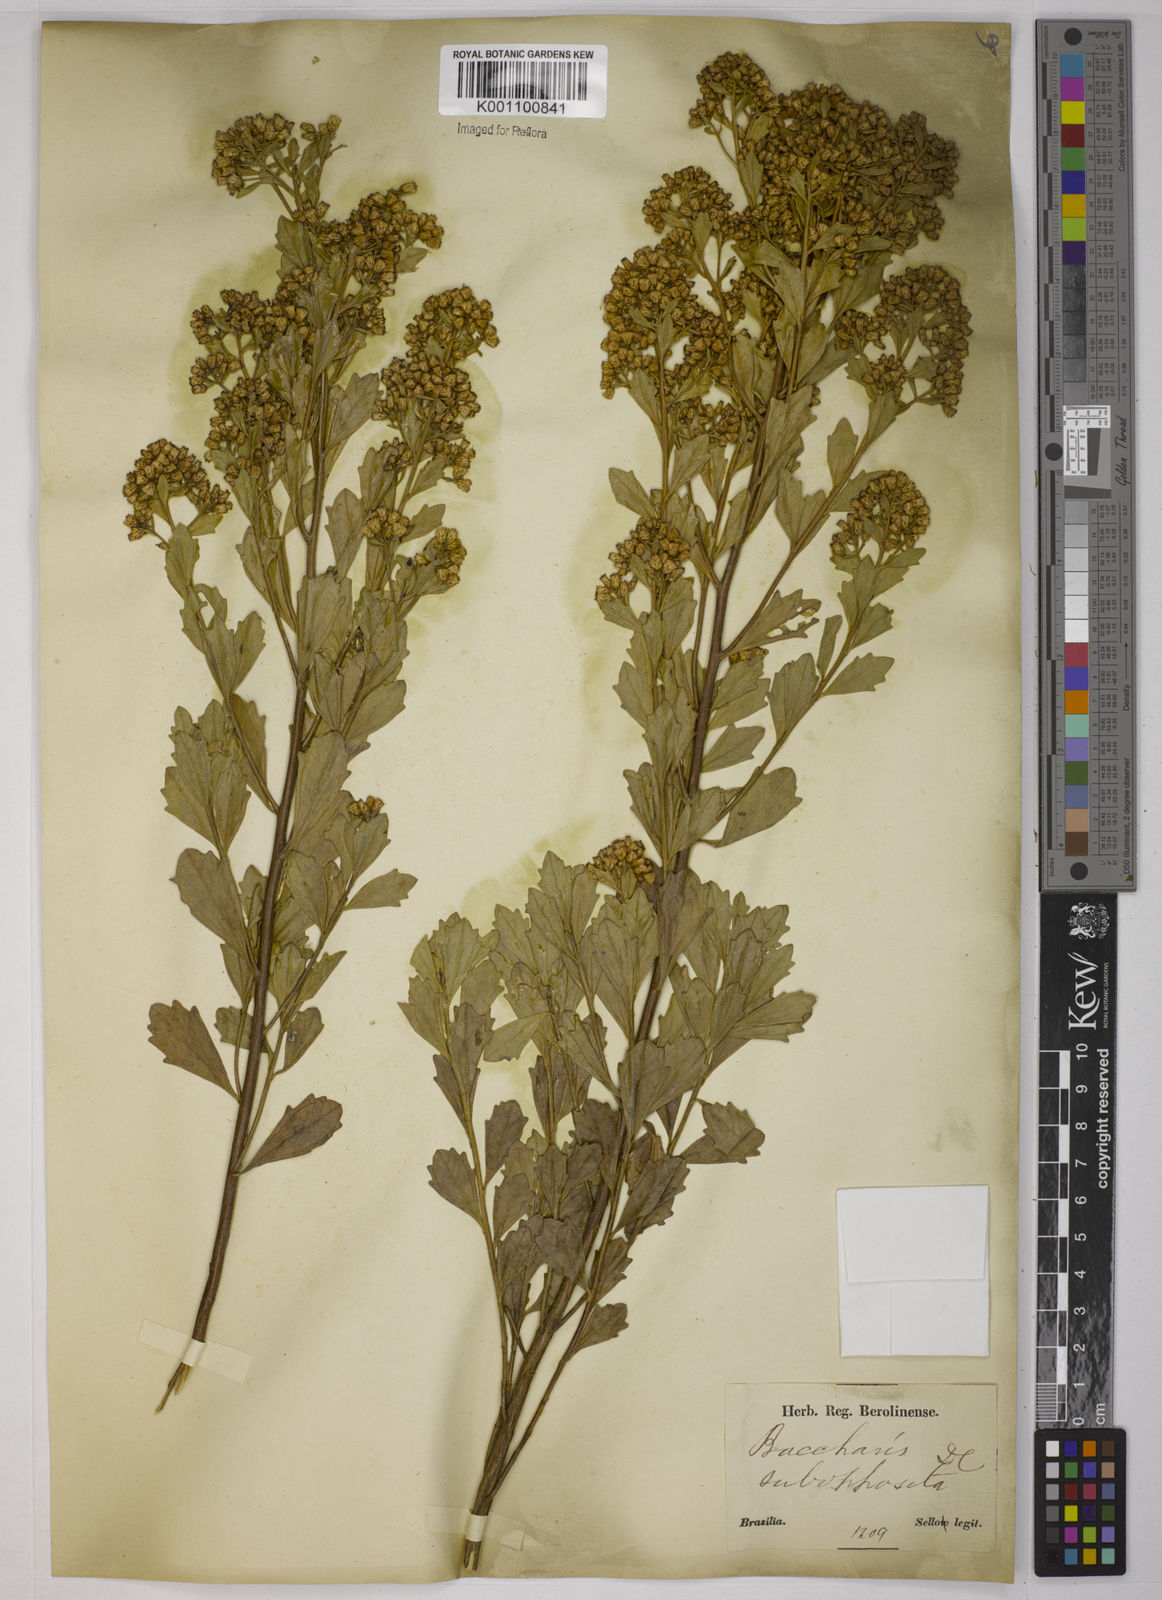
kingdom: Plantae
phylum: Tracheophyta
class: Magnoliopsida
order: Asterales
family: Asteraceae
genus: Baccharis
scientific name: Baccharis subopposita
